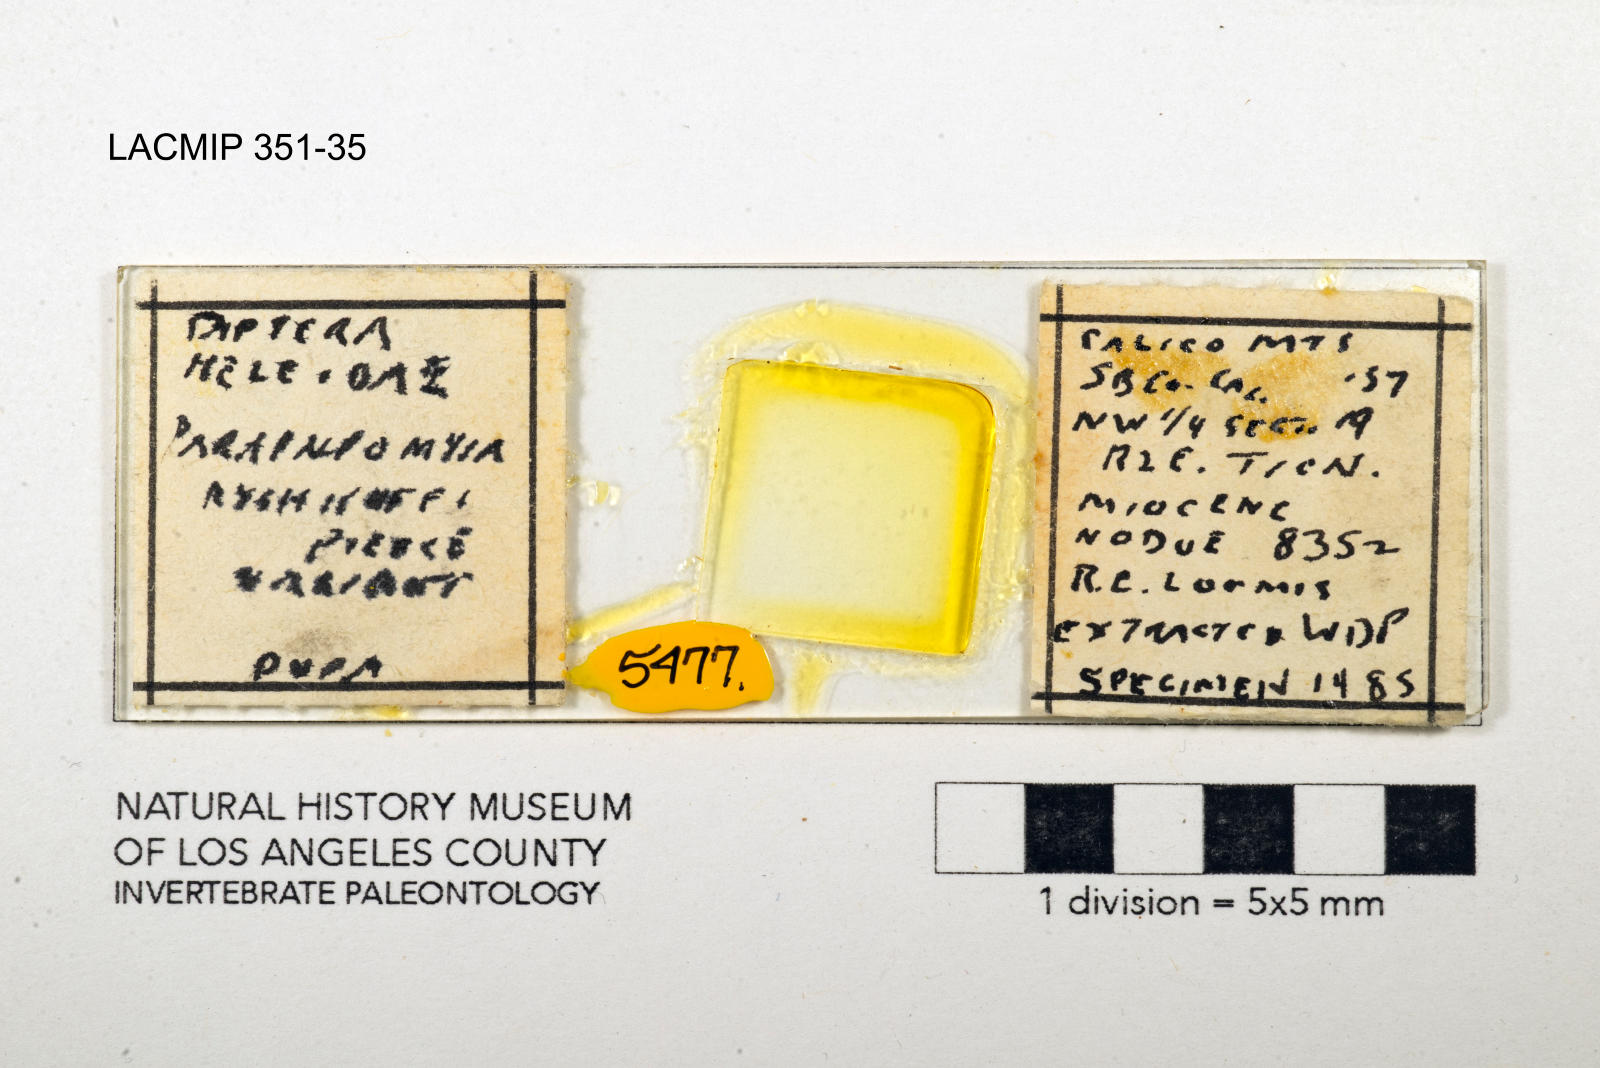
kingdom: Animalia
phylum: Arthropoda
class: Insecta
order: Diptera
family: Ceratopogonidae
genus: Palpomyia
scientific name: Palpomyia ryshkoffi
